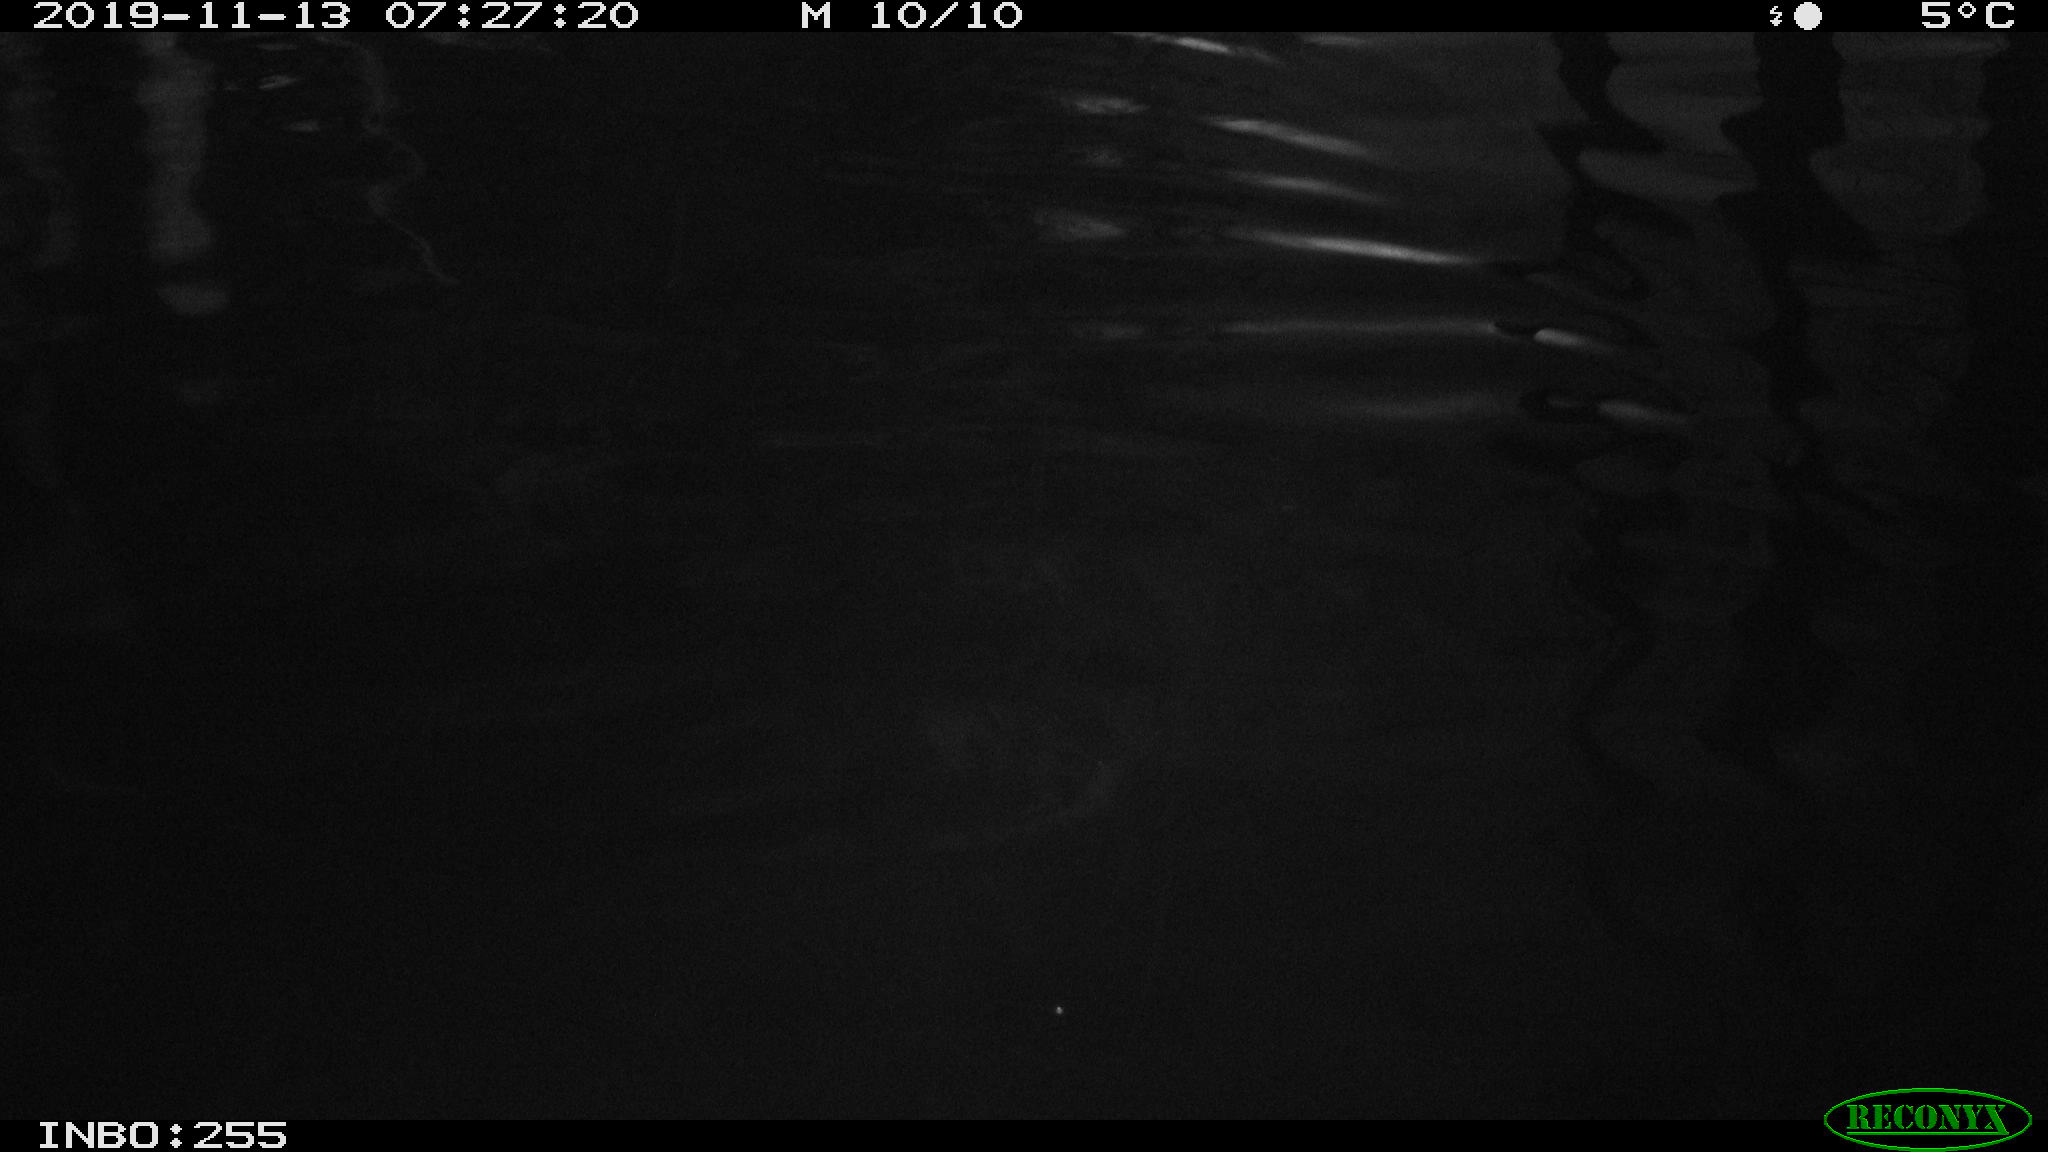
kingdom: Animalia
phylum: Chordata
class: Aves
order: Gruiformes
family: Rallidae
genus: Gallinula
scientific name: Gallinula chloropus
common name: Common moorhen
